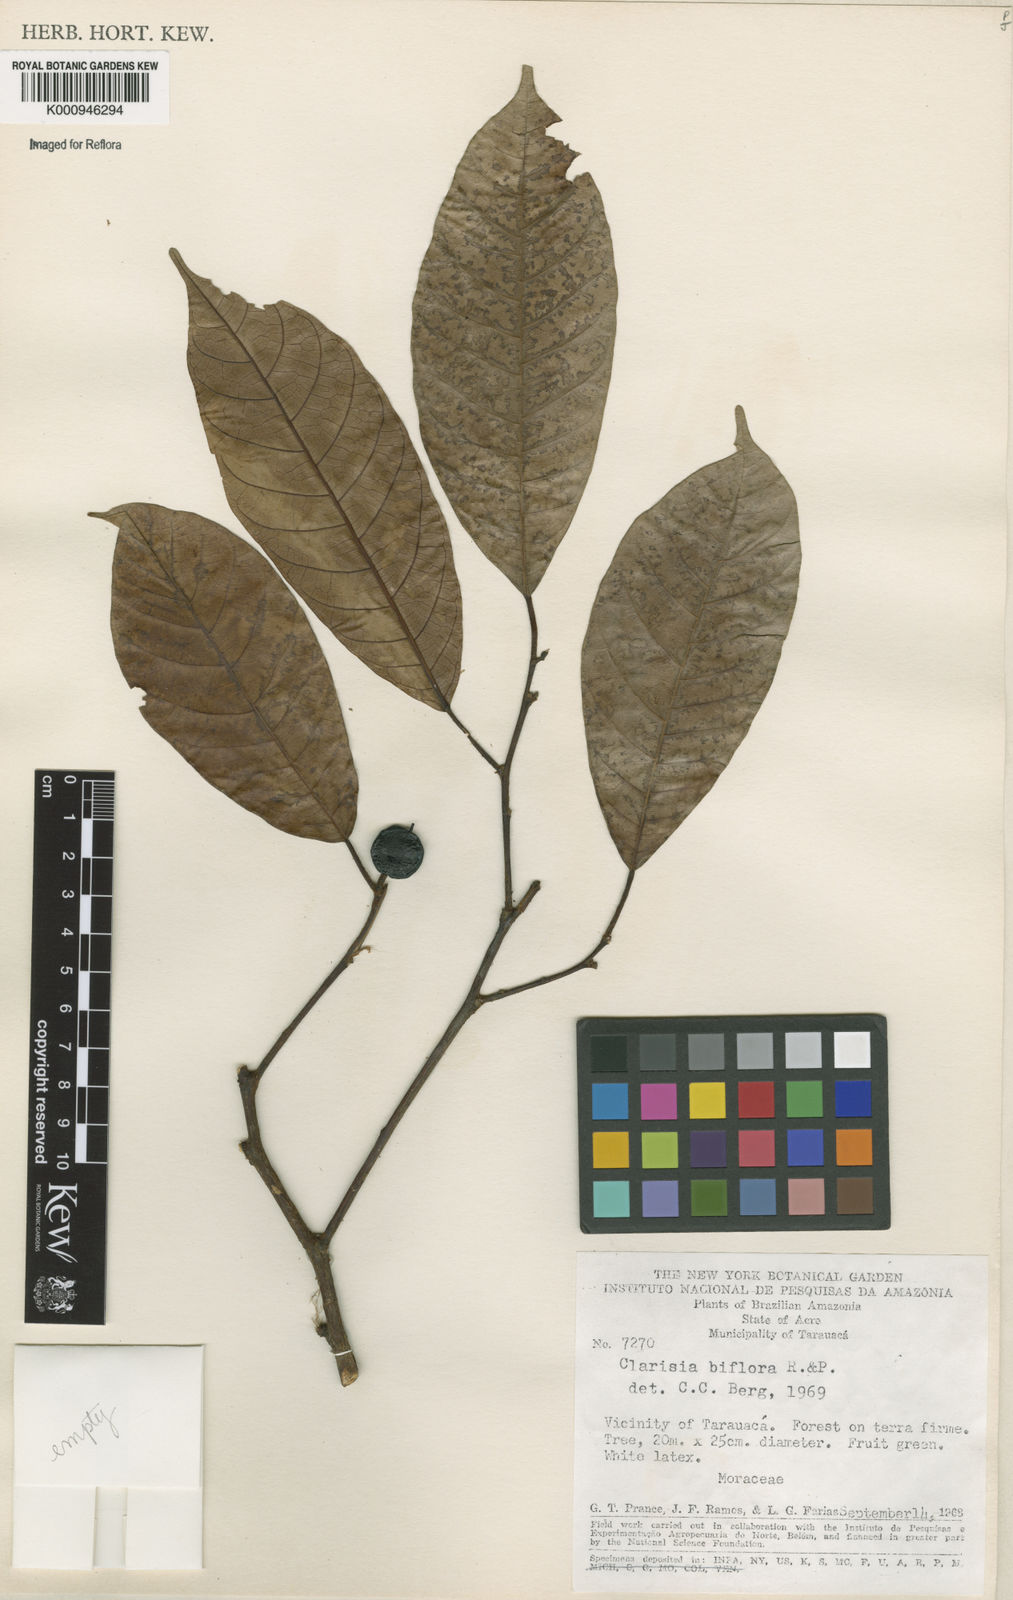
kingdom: Plantae
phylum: Tracheophyta
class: Magnoliopsida
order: Rosales
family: Moraceae
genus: Clarisia
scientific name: Clarisia biflora
